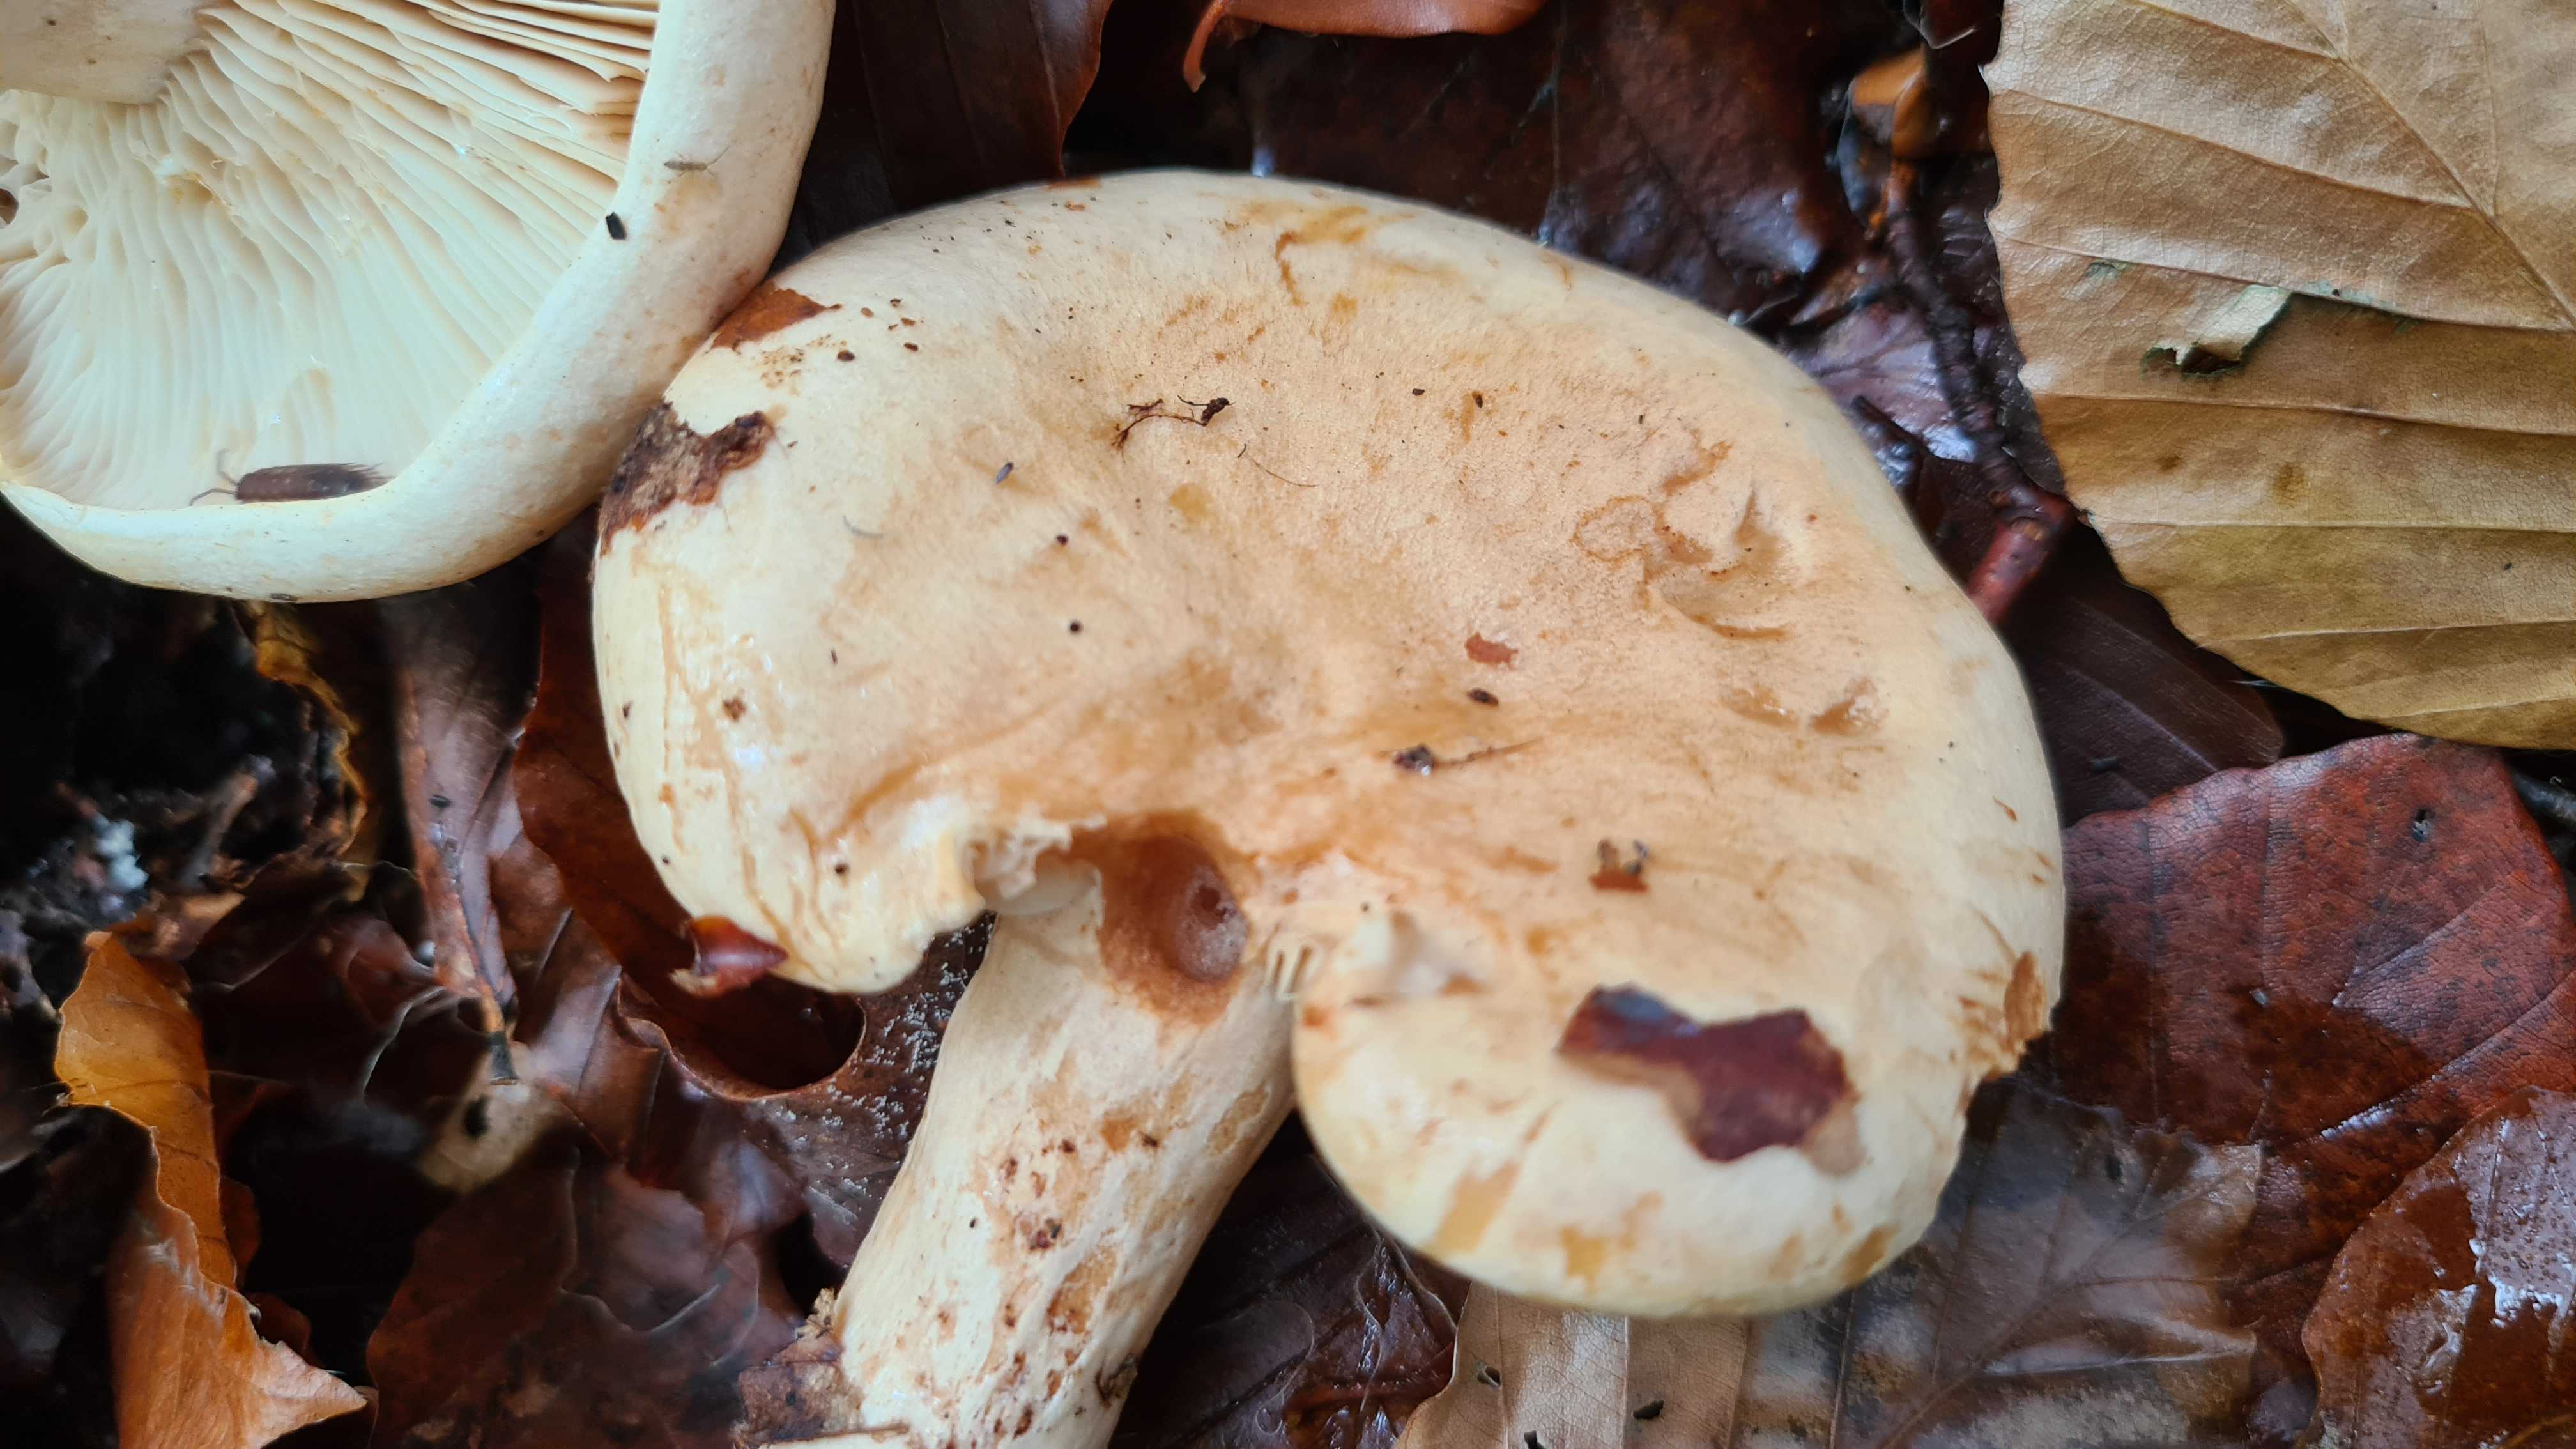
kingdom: Fungi
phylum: Basidiomycota
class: Agaricomycetes
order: Russulales
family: Russulaceae
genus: Lactarius
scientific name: Lactarius pallidus
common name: bleg mælkehat
